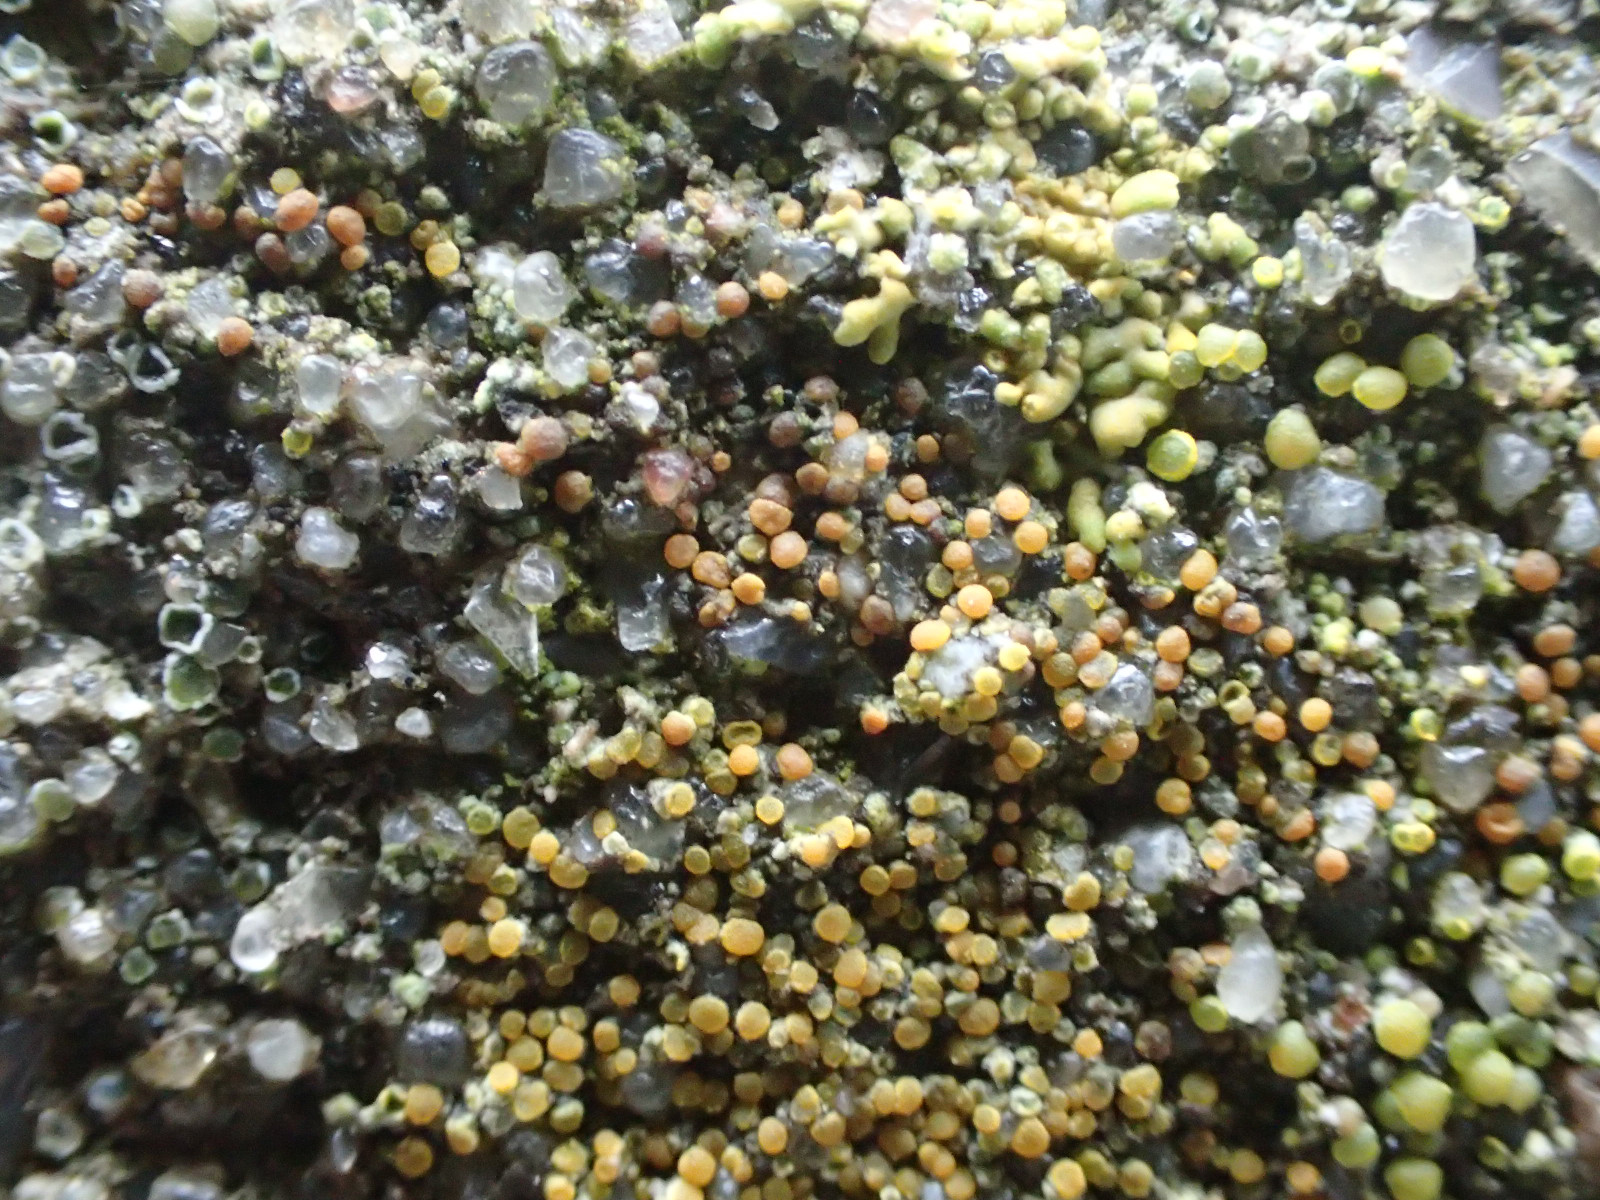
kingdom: Fungi
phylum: Ascomycota
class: Lecanoromycetes
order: Teloschistales
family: Teloschistaceae
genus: Athallia
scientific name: Athallia holocarpa
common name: liden orangelav
